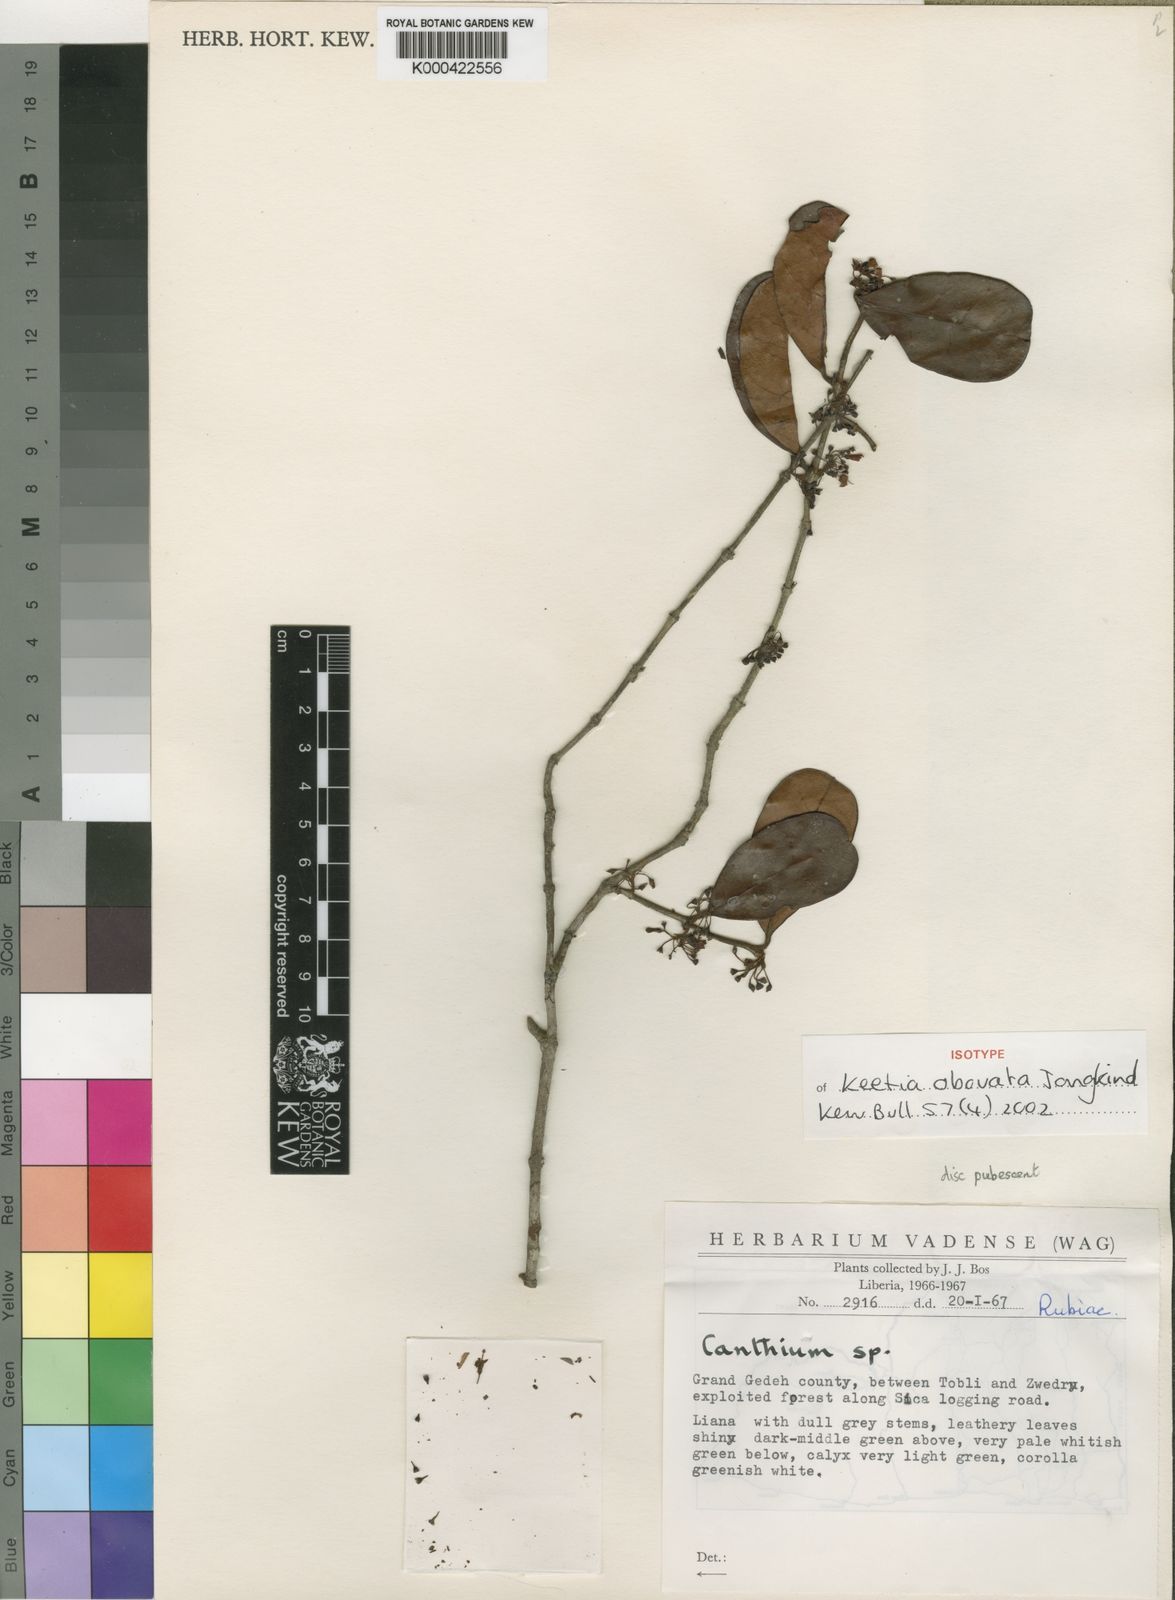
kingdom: Plantae
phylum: Tracheophyta
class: Magnoliopsida
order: Gentianales
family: Rubiaceae
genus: Keetia
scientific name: Keetia obovata
